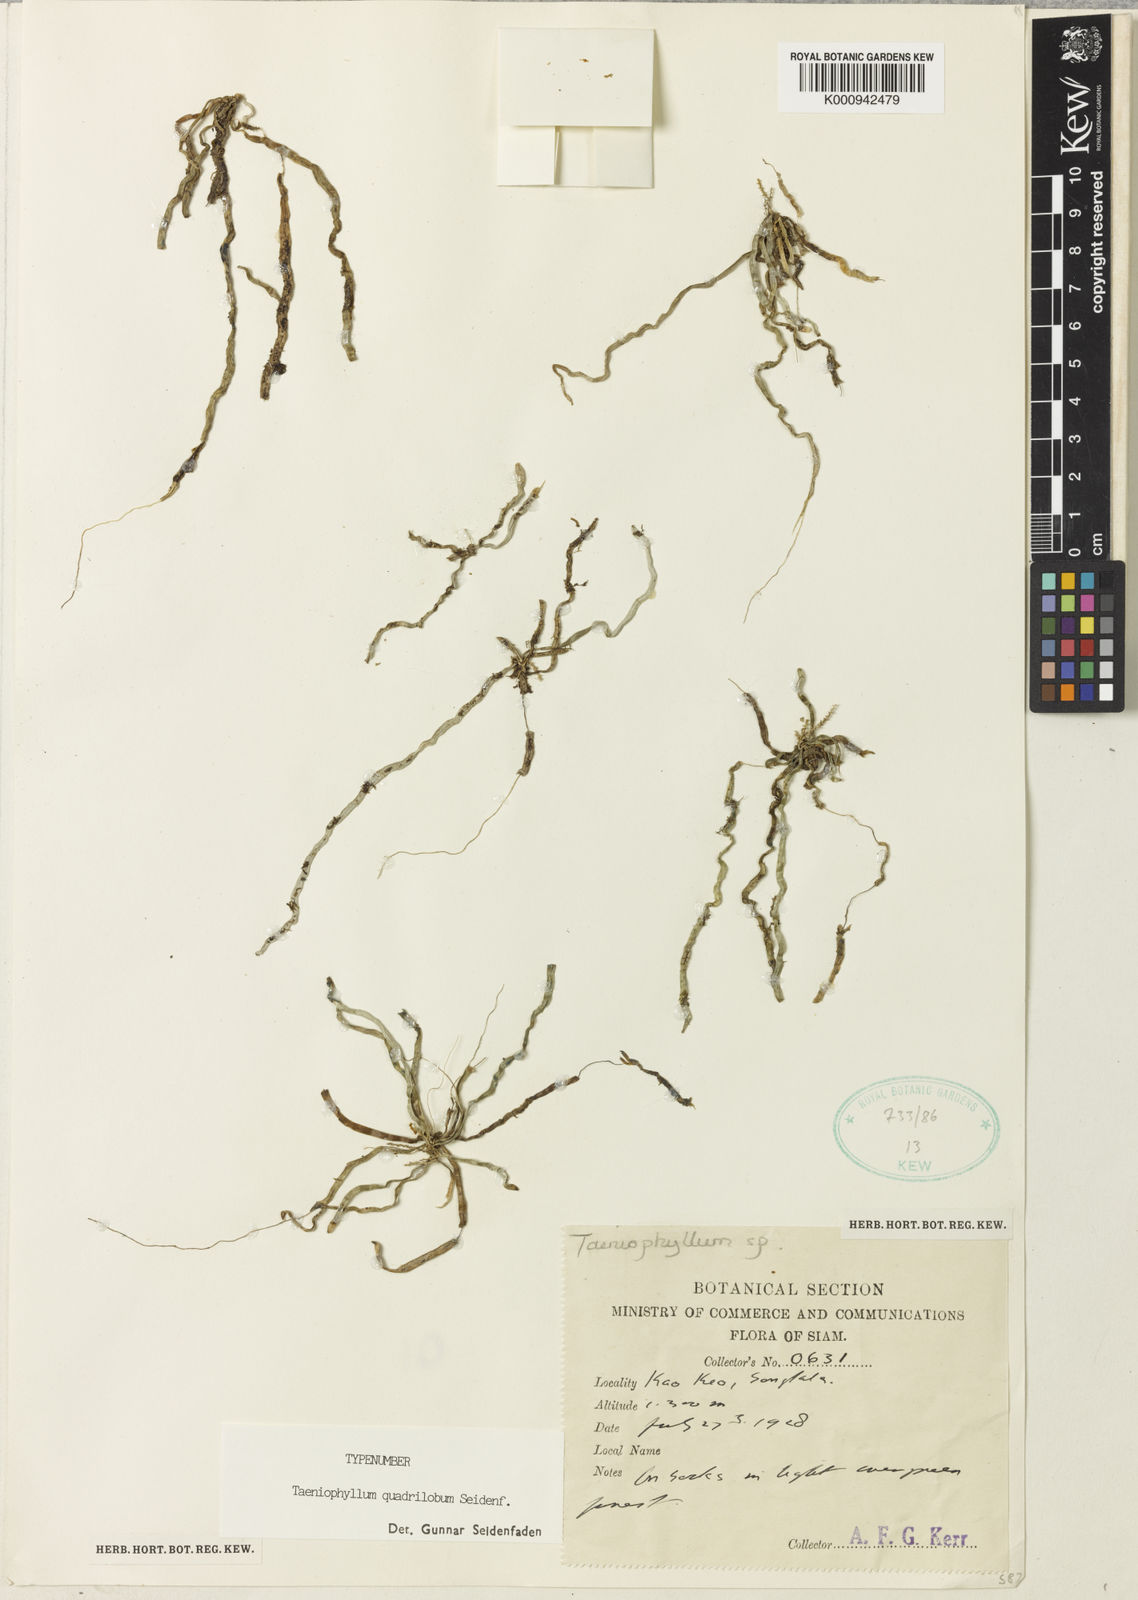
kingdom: Plantae
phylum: Tracheophyta
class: Liliopsida
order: Asparagales
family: Orchidaceae
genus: Taeniophyllum
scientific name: Taeniophyllum quadrilobum
